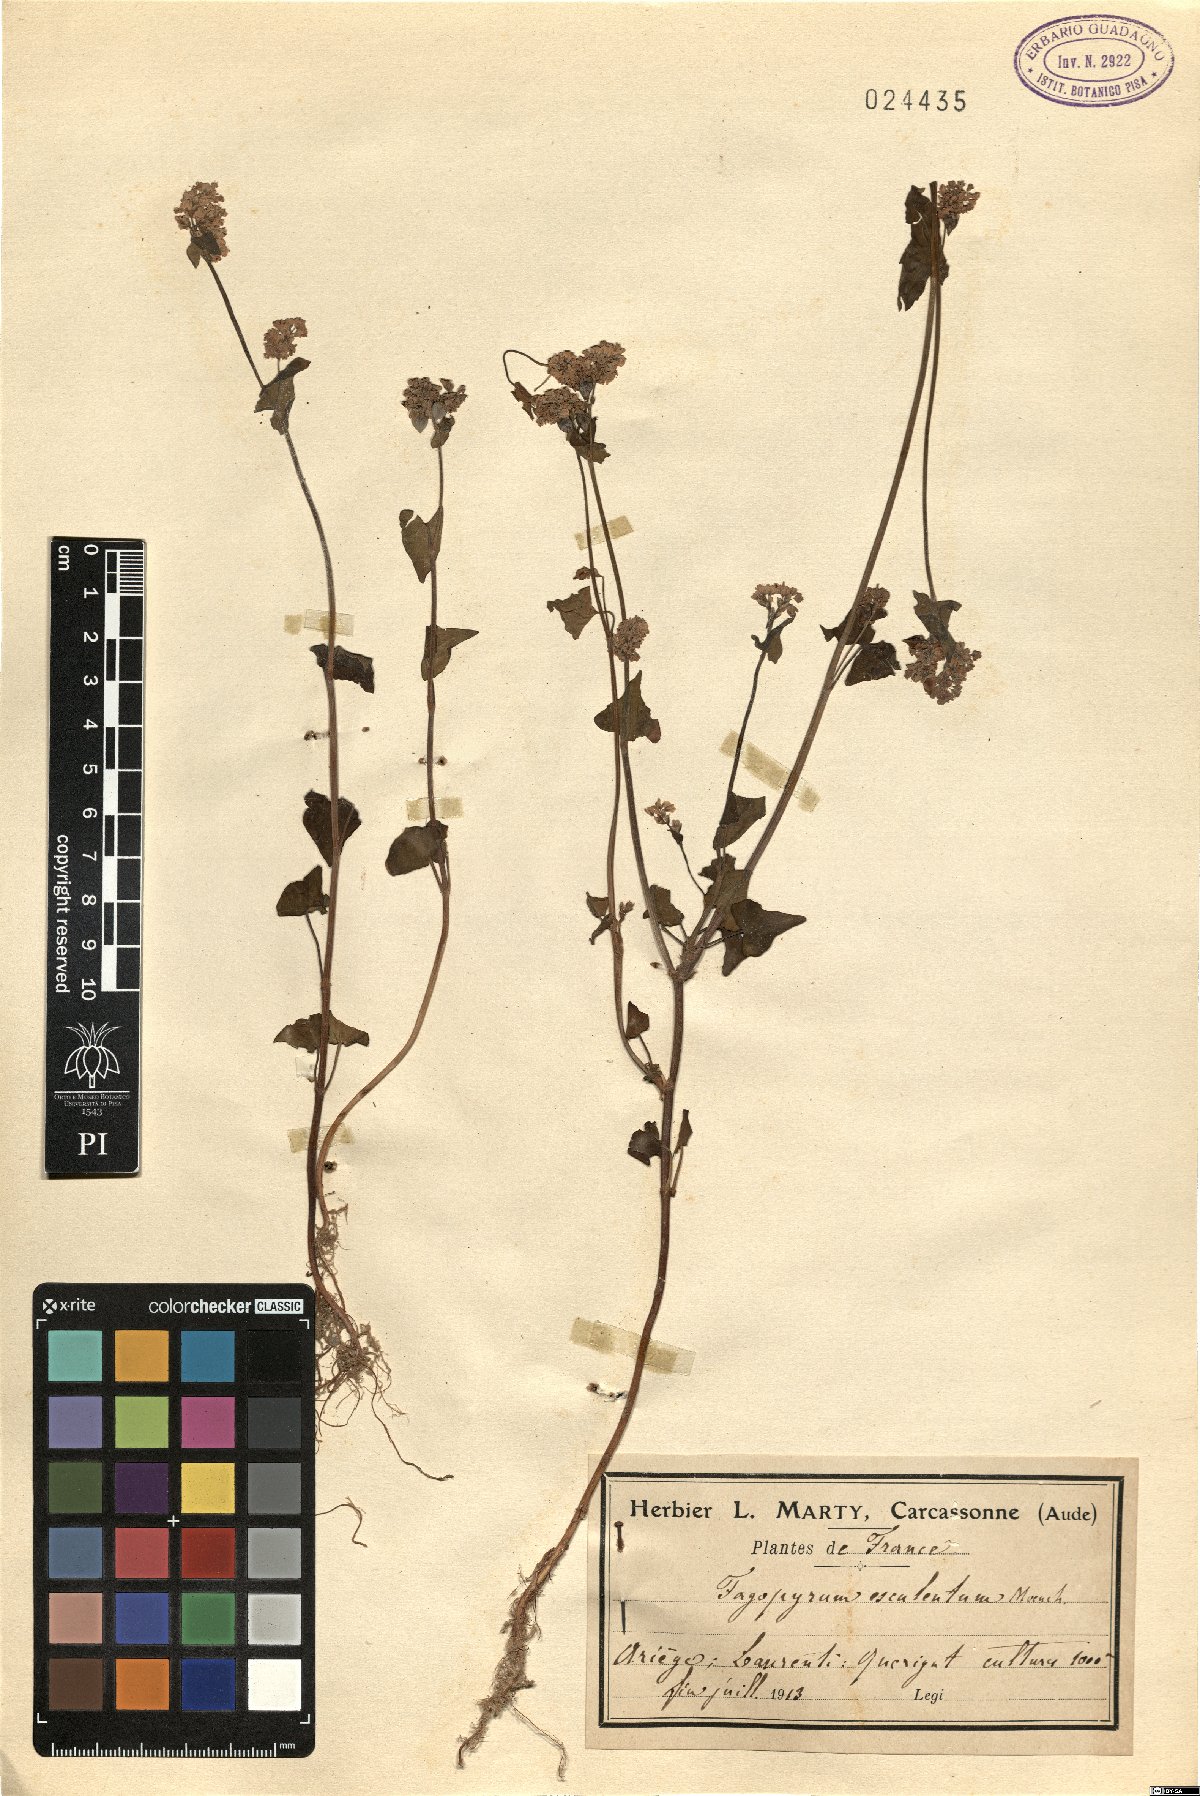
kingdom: Plantae
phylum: Tracheophyta
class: Magnoliopsida
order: Caryophyllales
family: Polygonaceae
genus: Fagopyrum
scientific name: Fagopyrum esculentum
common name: Buckwheat
